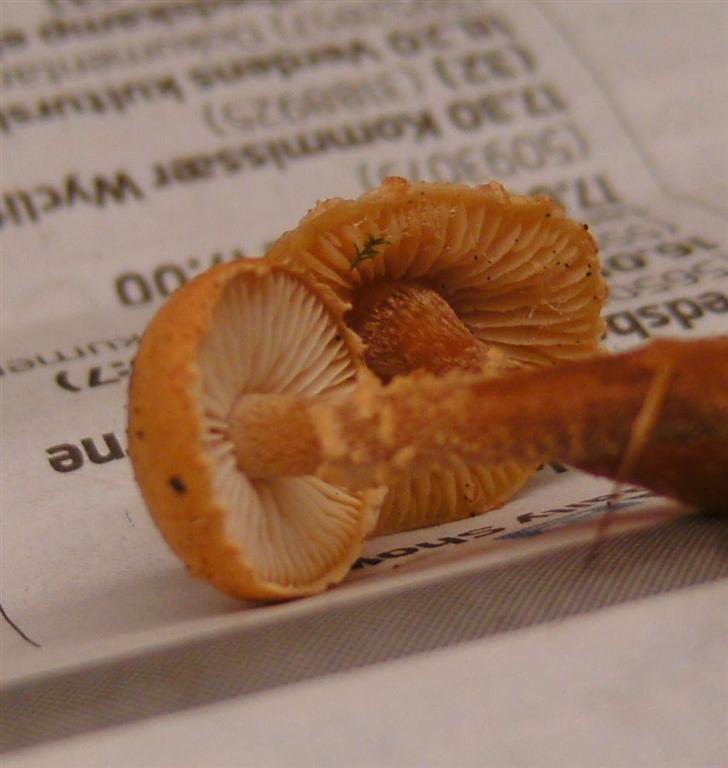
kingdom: Fungi
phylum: Basidiomycota
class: Agaricomycetes
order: Agaricales
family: Tricholomataceae
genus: Cystoderma
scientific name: Cystoderma amianthinum
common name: okkergul grynhat
